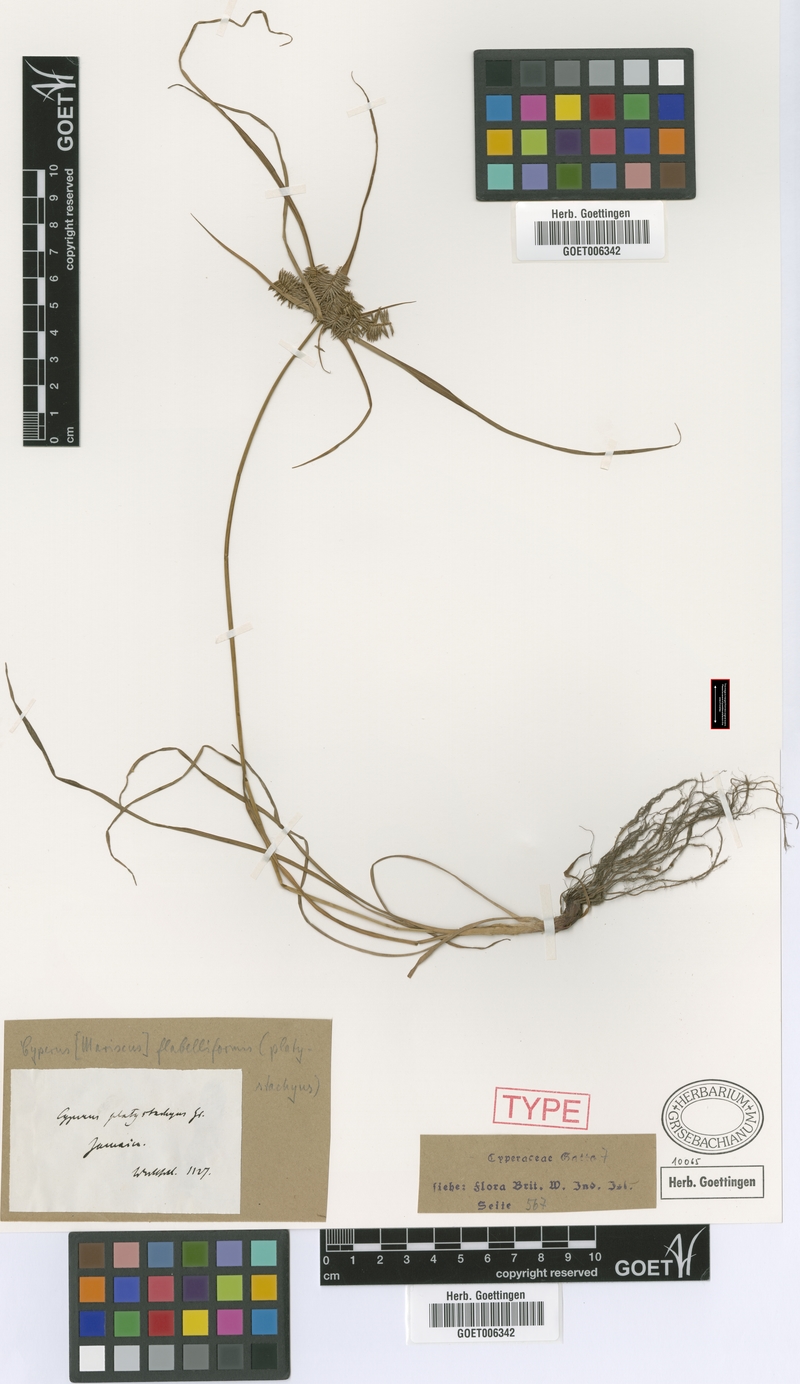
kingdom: Plantae
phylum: Tracheophyta
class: Liliopsida
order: Poales
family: Cyperaceae
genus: Cyperus
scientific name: Cyperus tenuis
